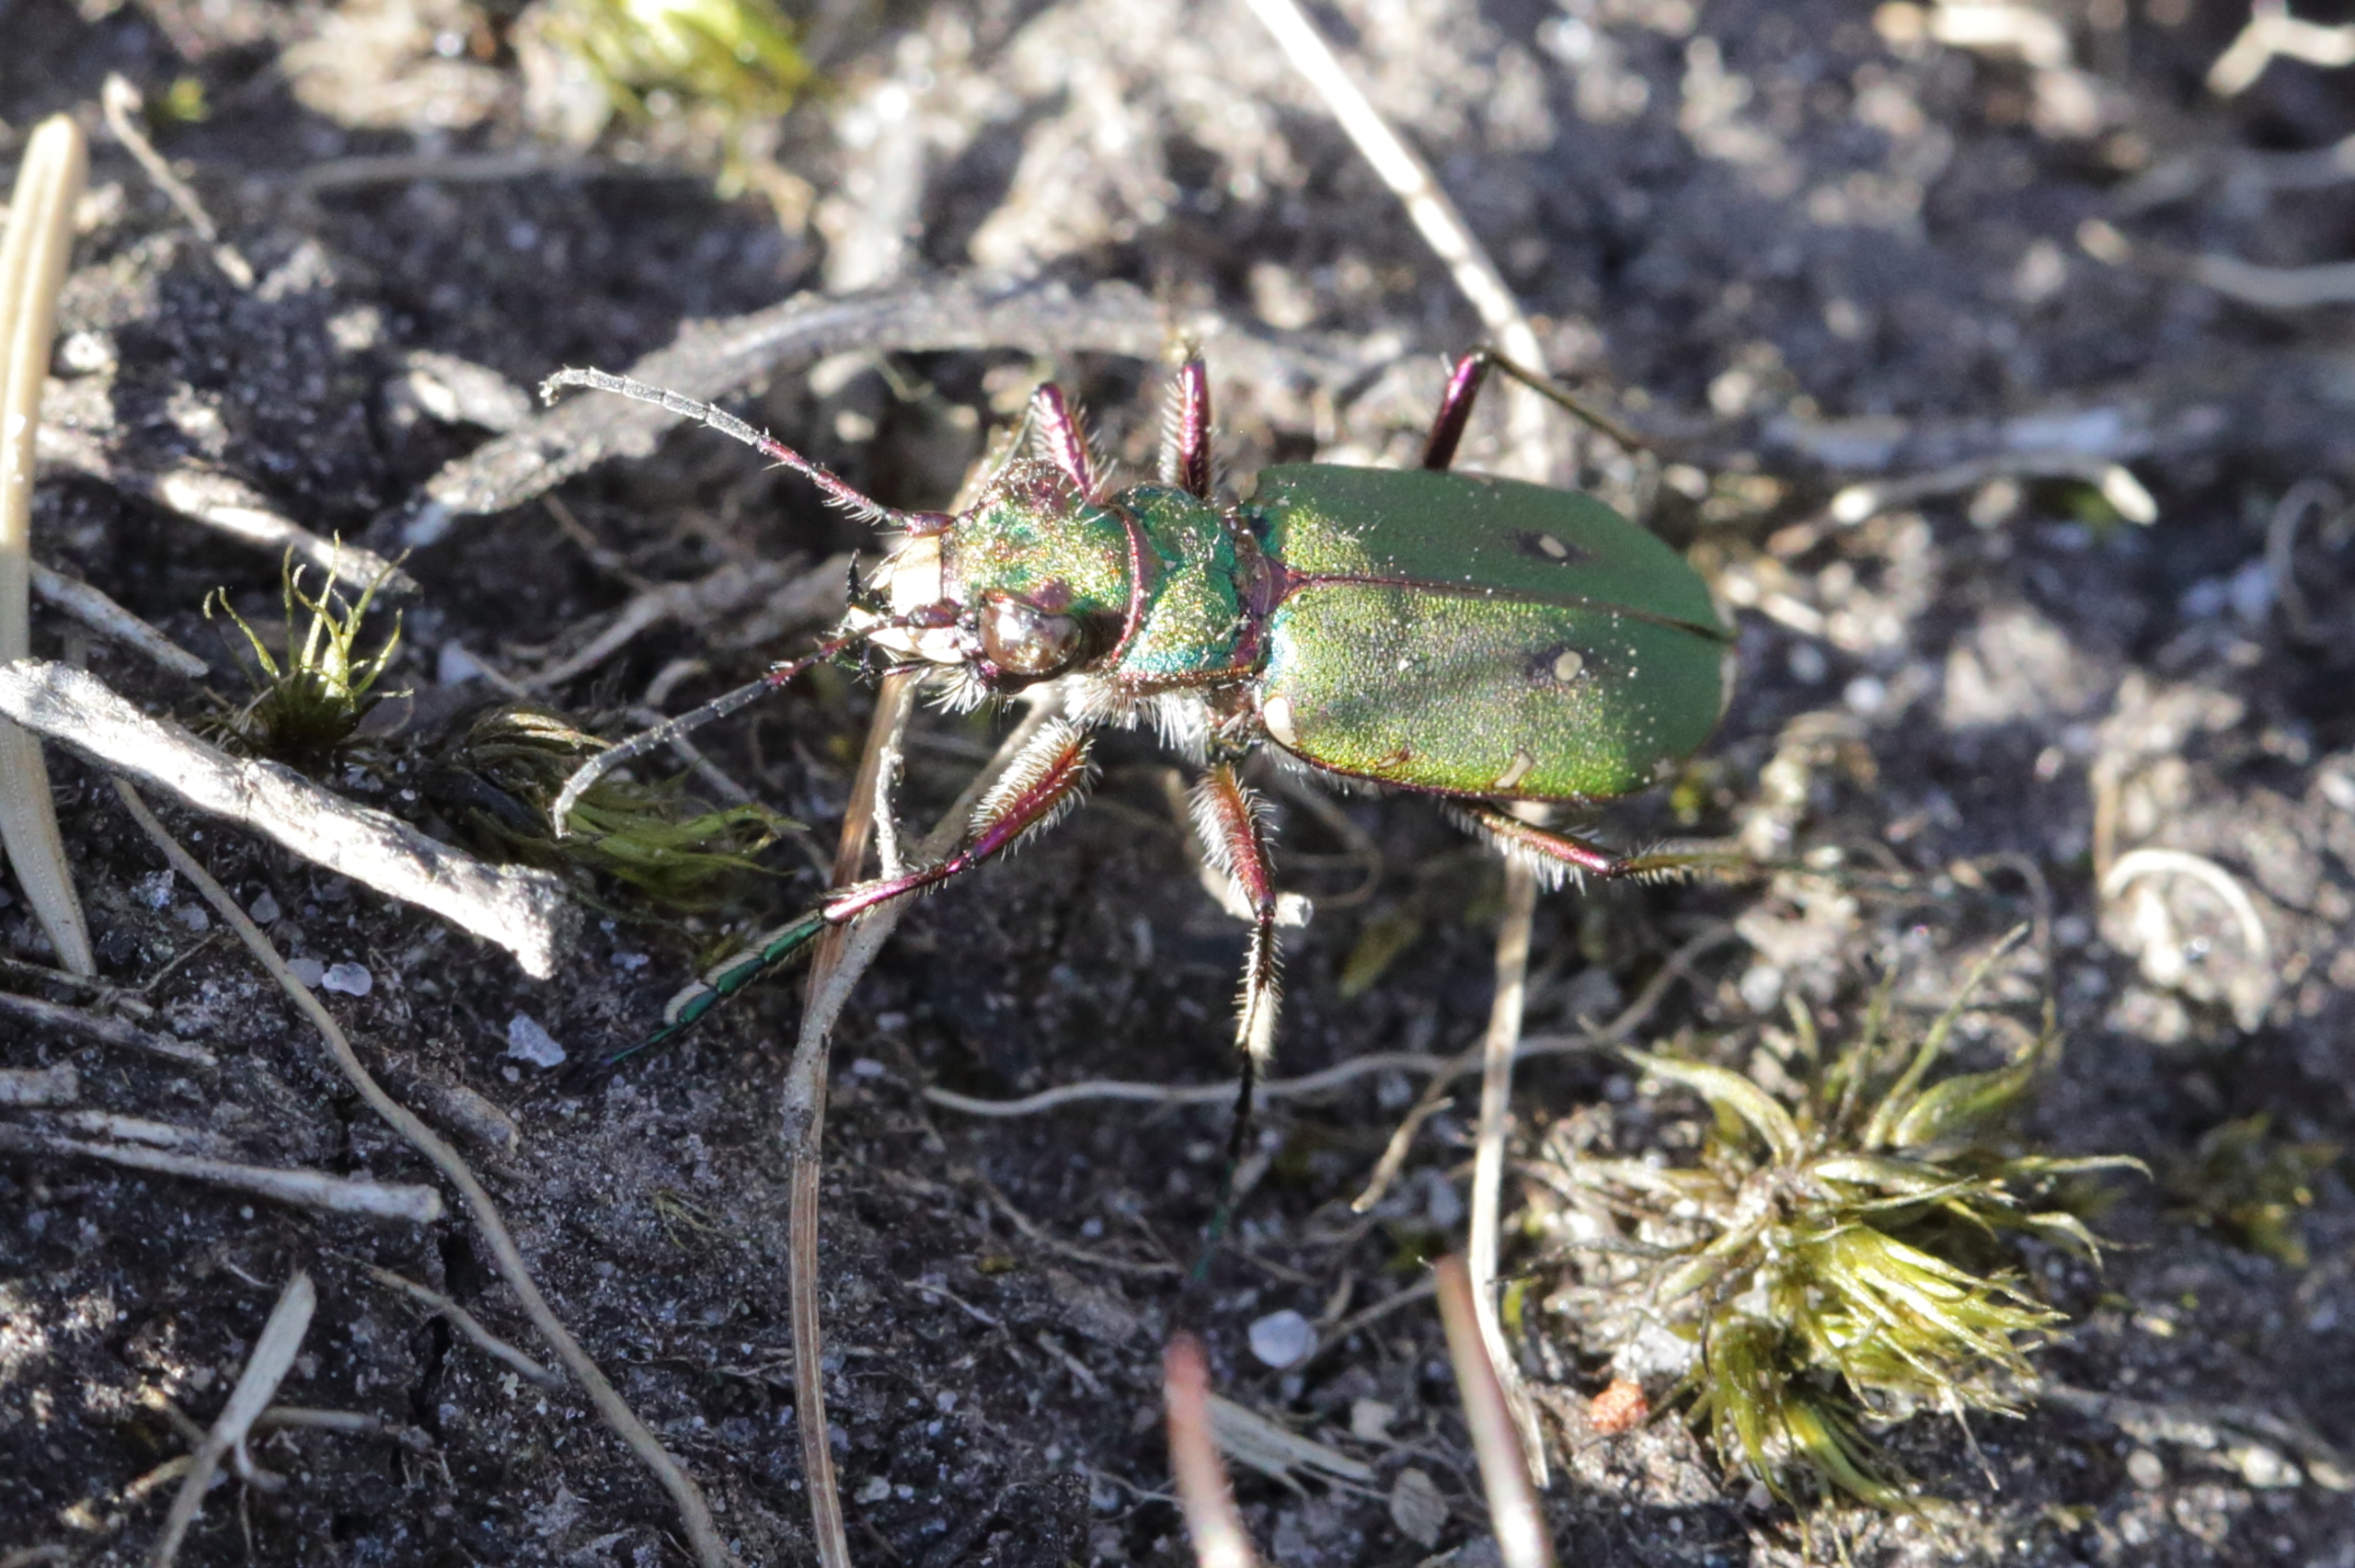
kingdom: Animalia
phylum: Arthropoda
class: Insecta
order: Coleoptera
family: Carabidae
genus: Cicindela
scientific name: Cicindela campestris
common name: Grøn sandspringer
